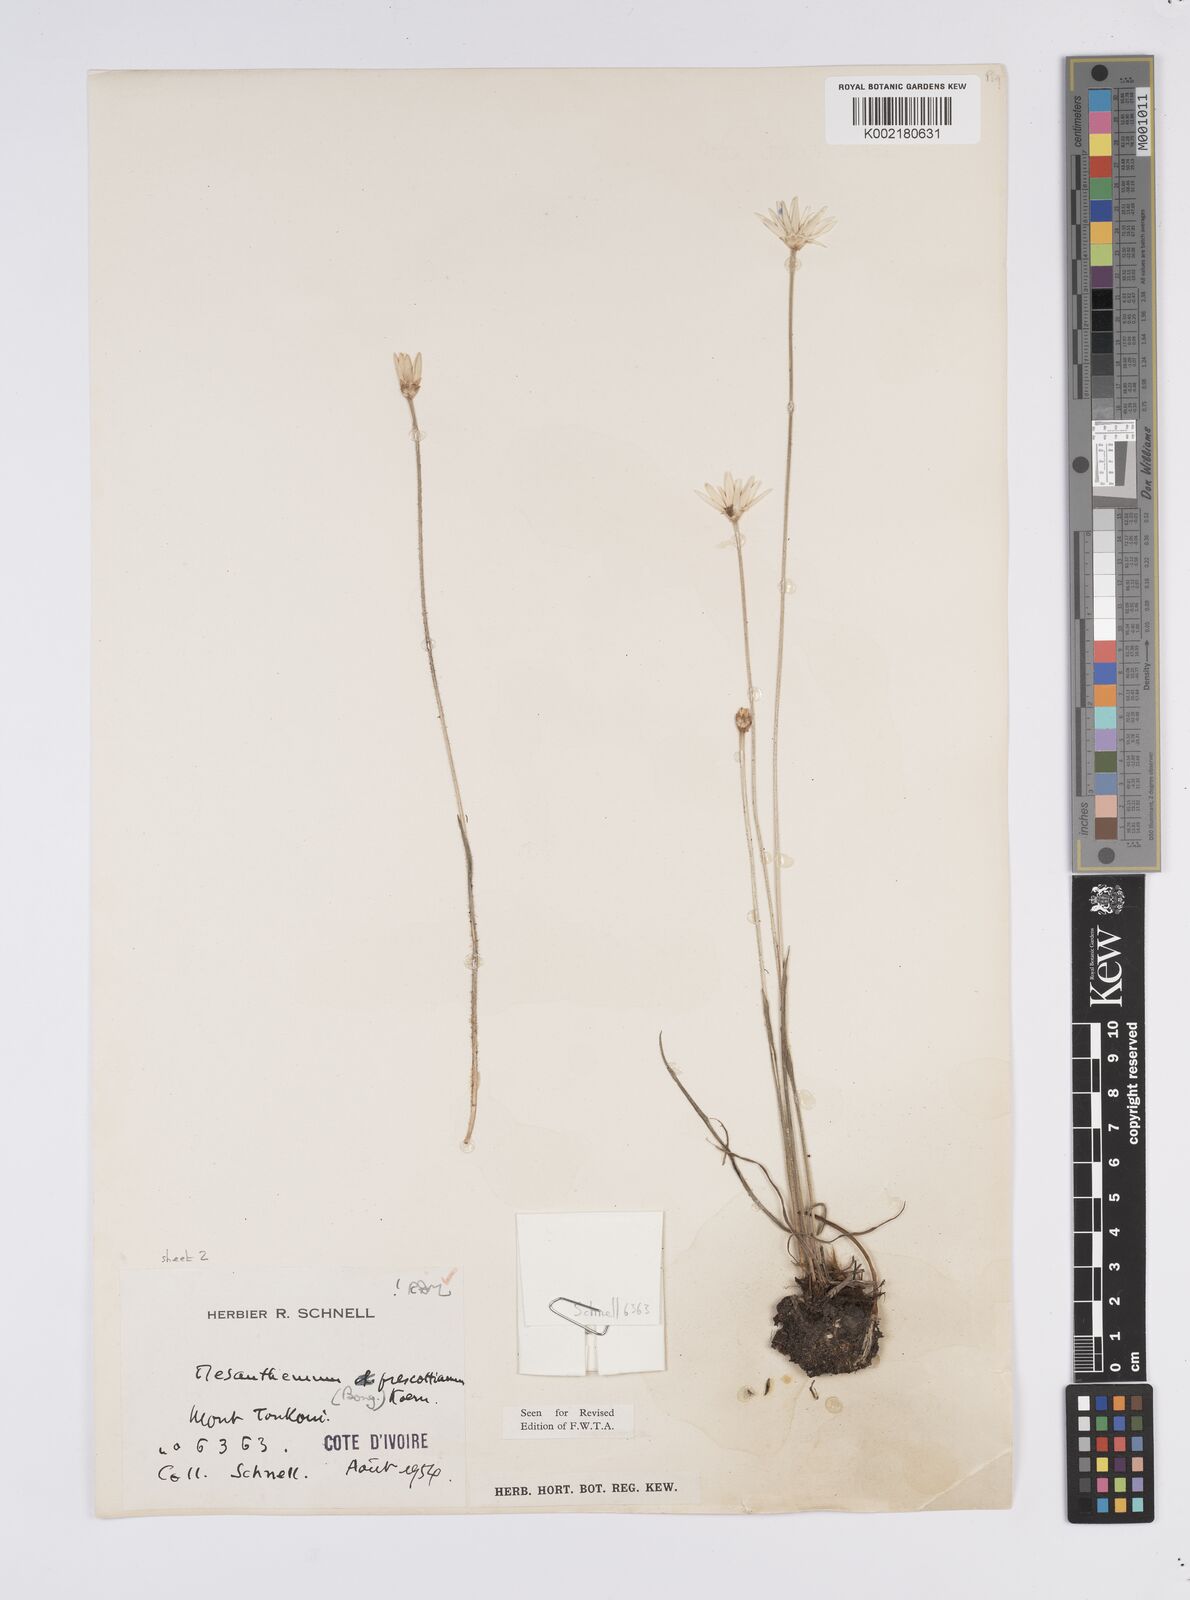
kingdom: Plantae
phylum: Tracheophyta
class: Liliopsida
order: Poales
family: Eriocaulaceae
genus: Mesanthemum
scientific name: Mesanthemum prescottianum
